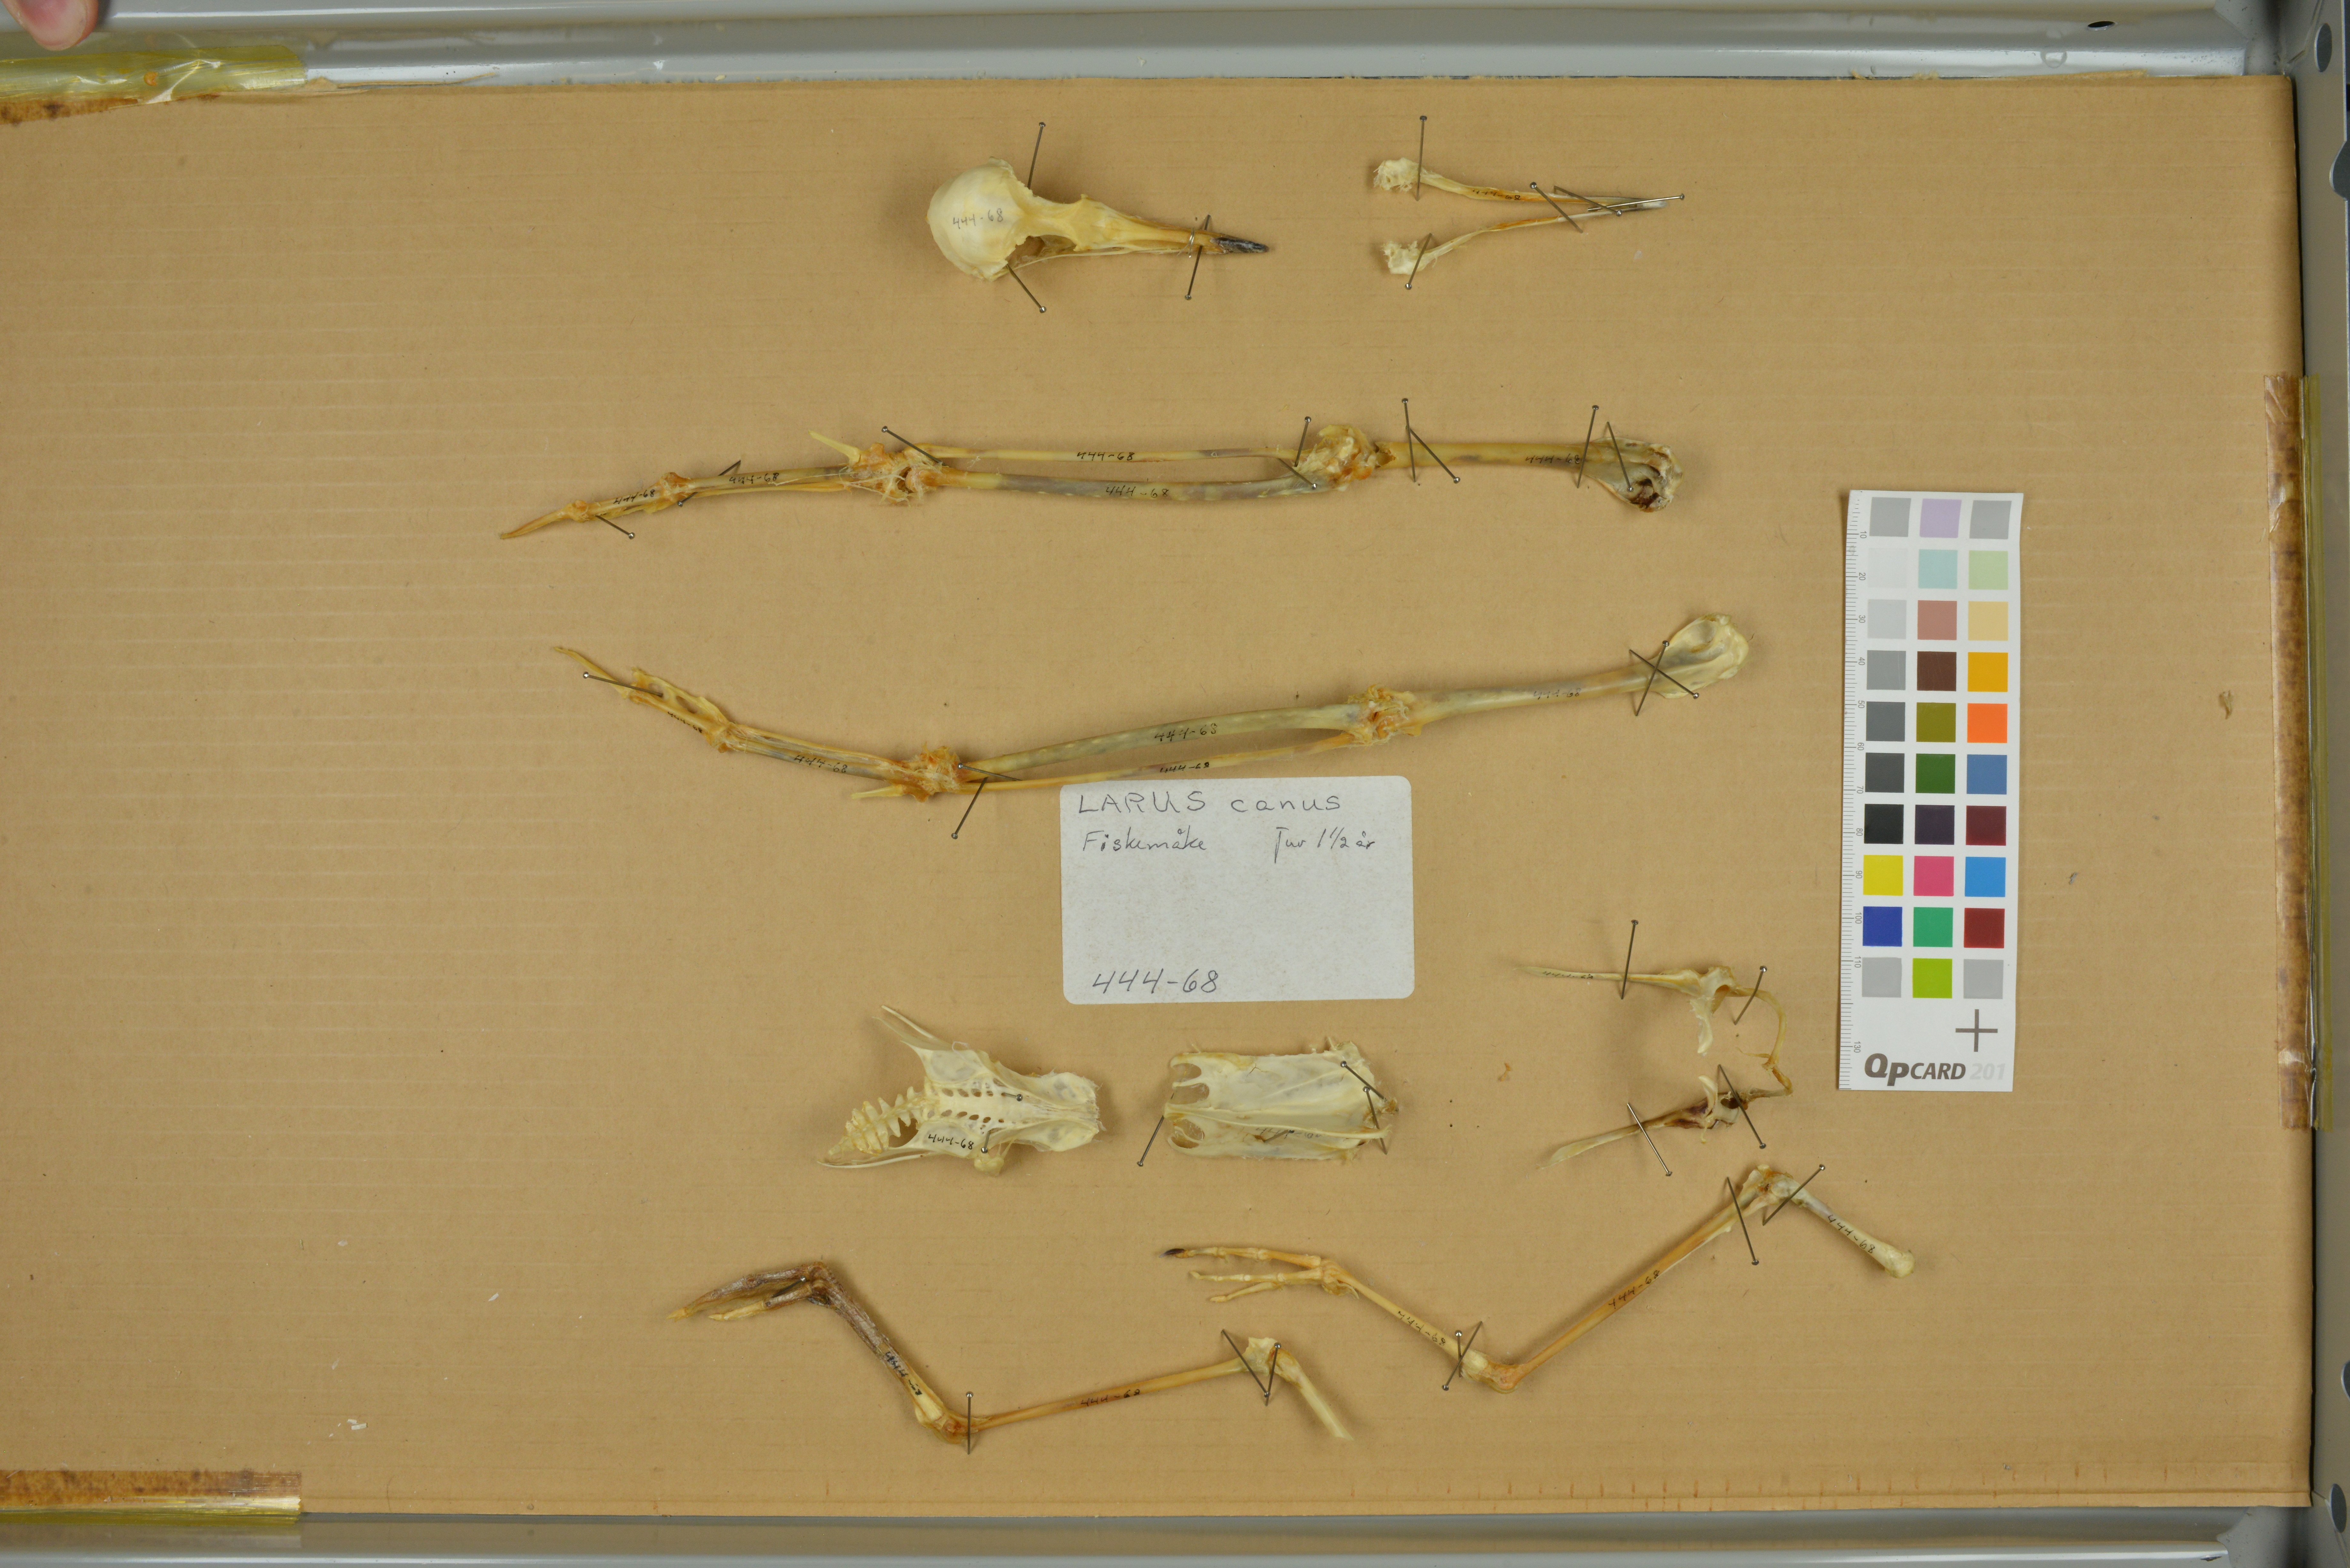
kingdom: Animalia
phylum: Chordata
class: Aves
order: Charadriiformes
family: Laridae
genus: Larus
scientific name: Larus canus
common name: Mew gull
